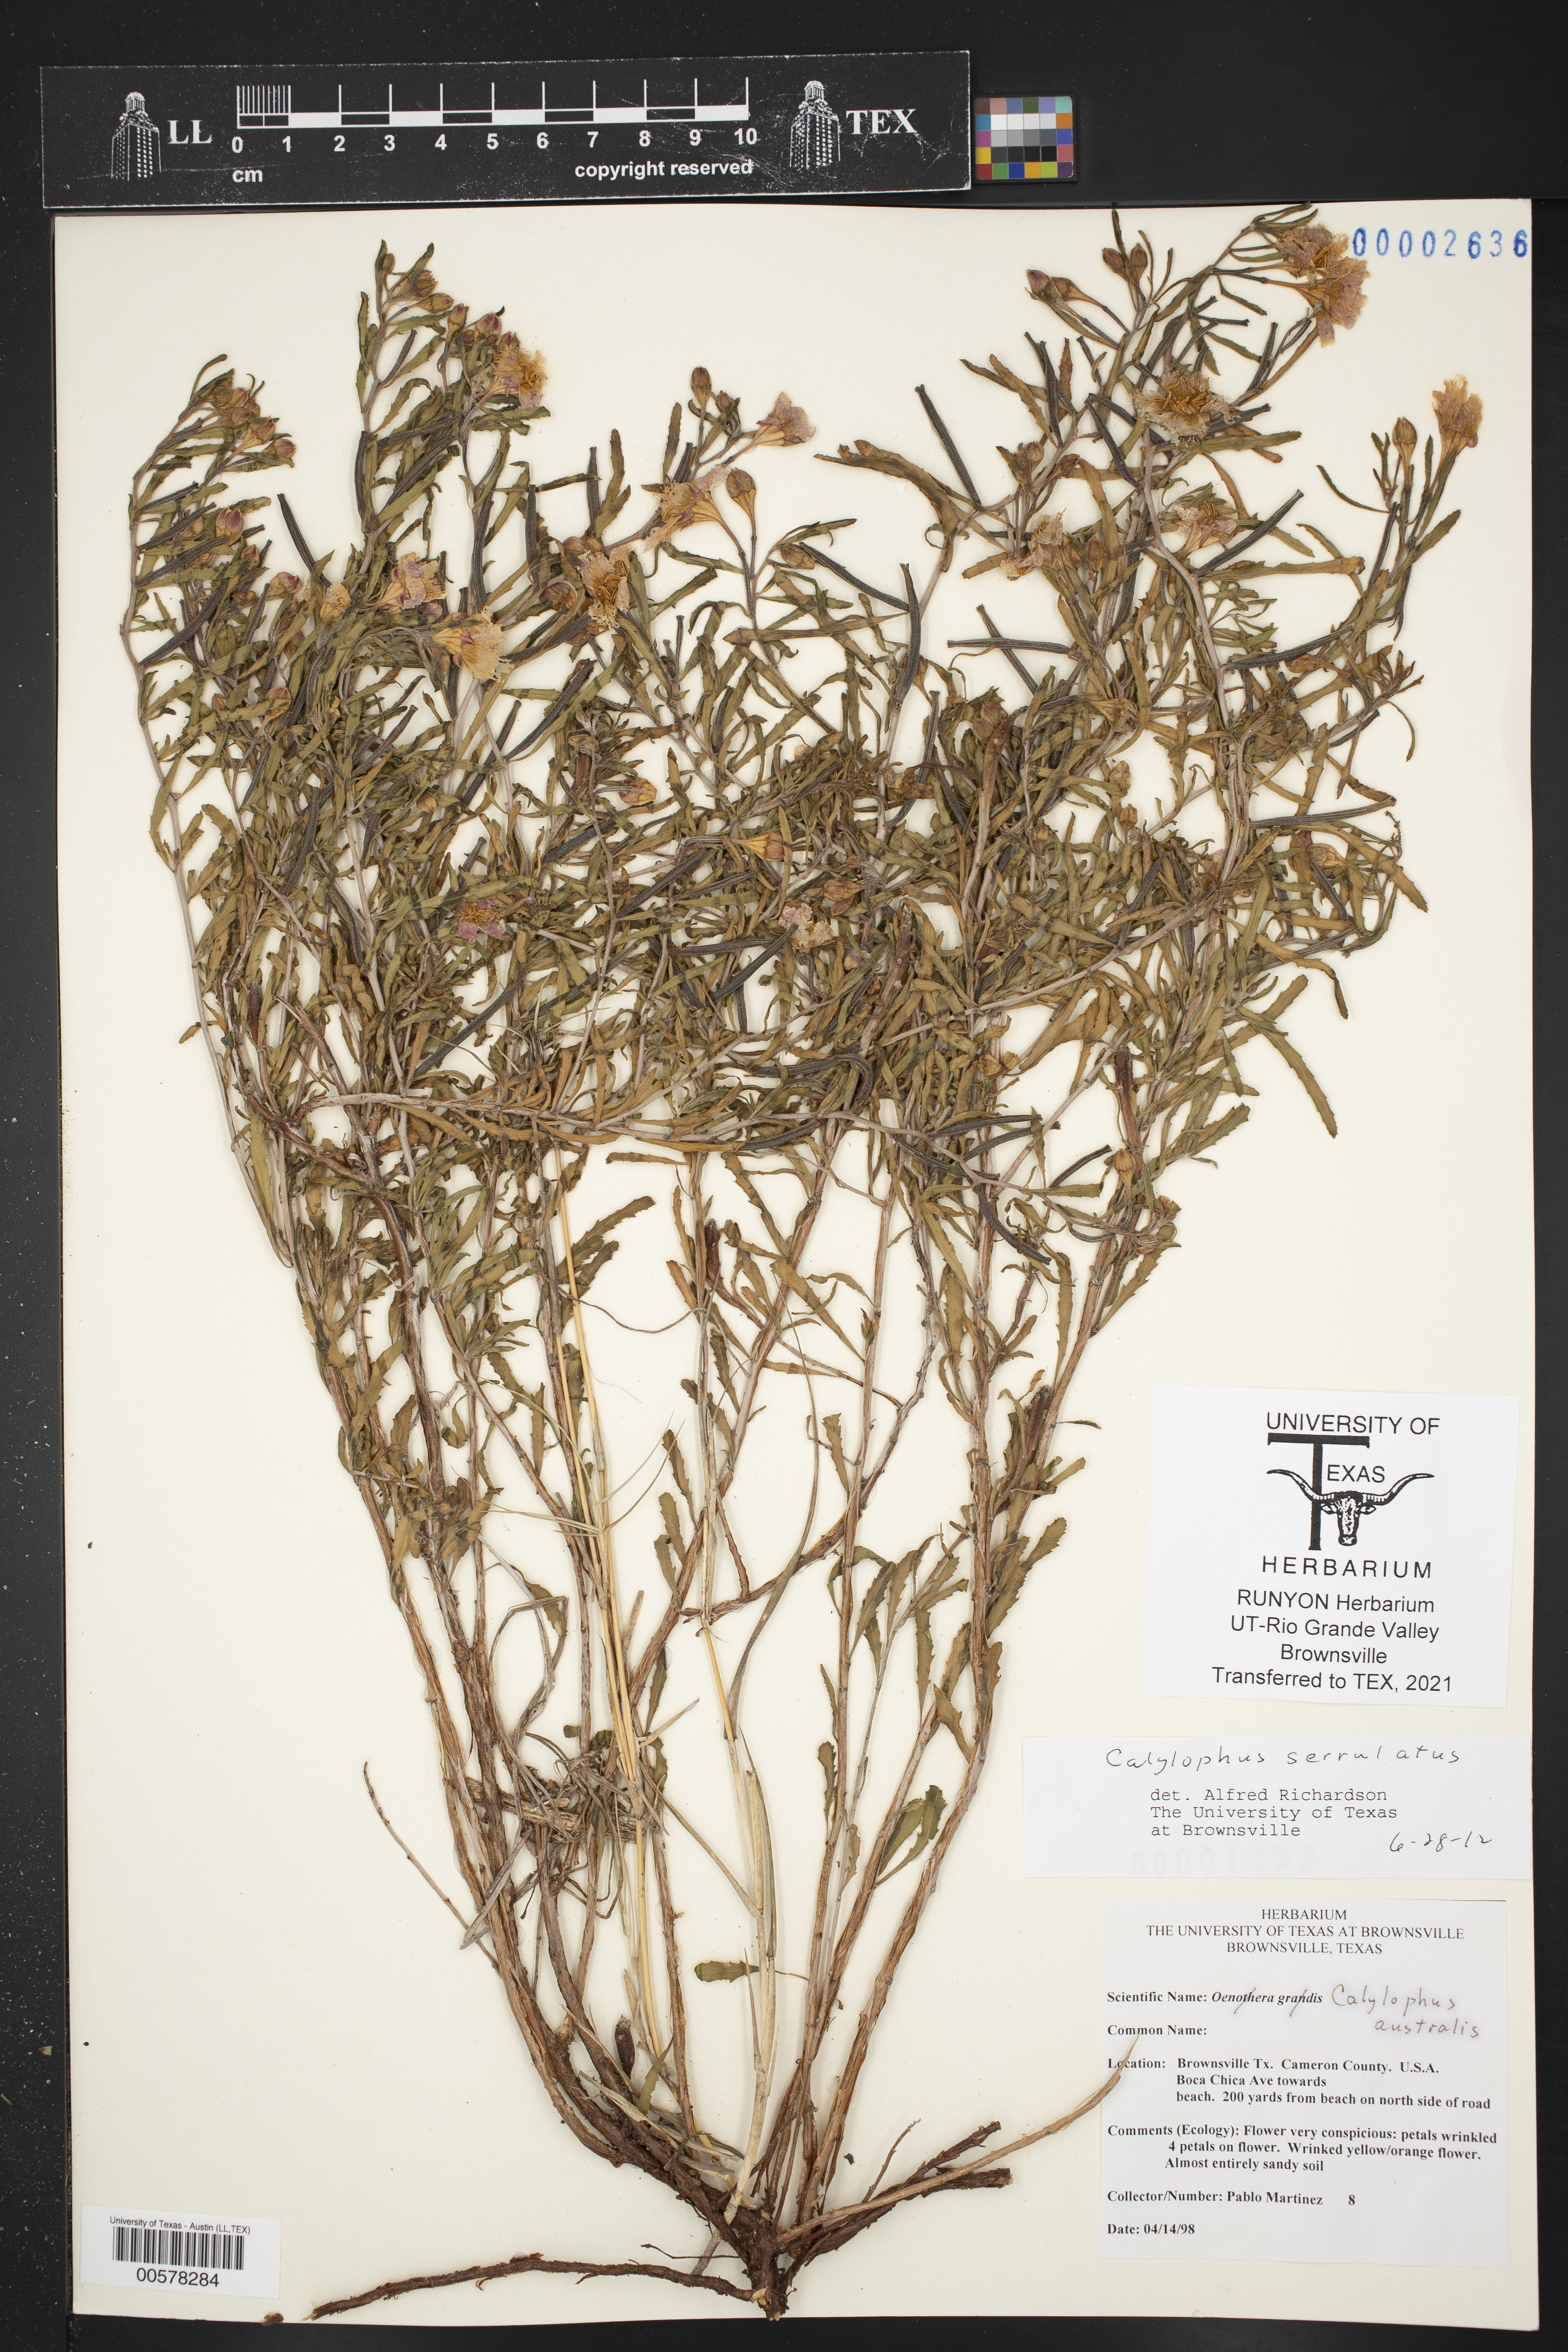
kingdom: Plantae
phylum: Tracheophyta
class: Magnoliopsida
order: Myrtales
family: Onagraceae
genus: Oenothera
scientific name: Oenothera serrulata
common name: Half-shrub calylophus
